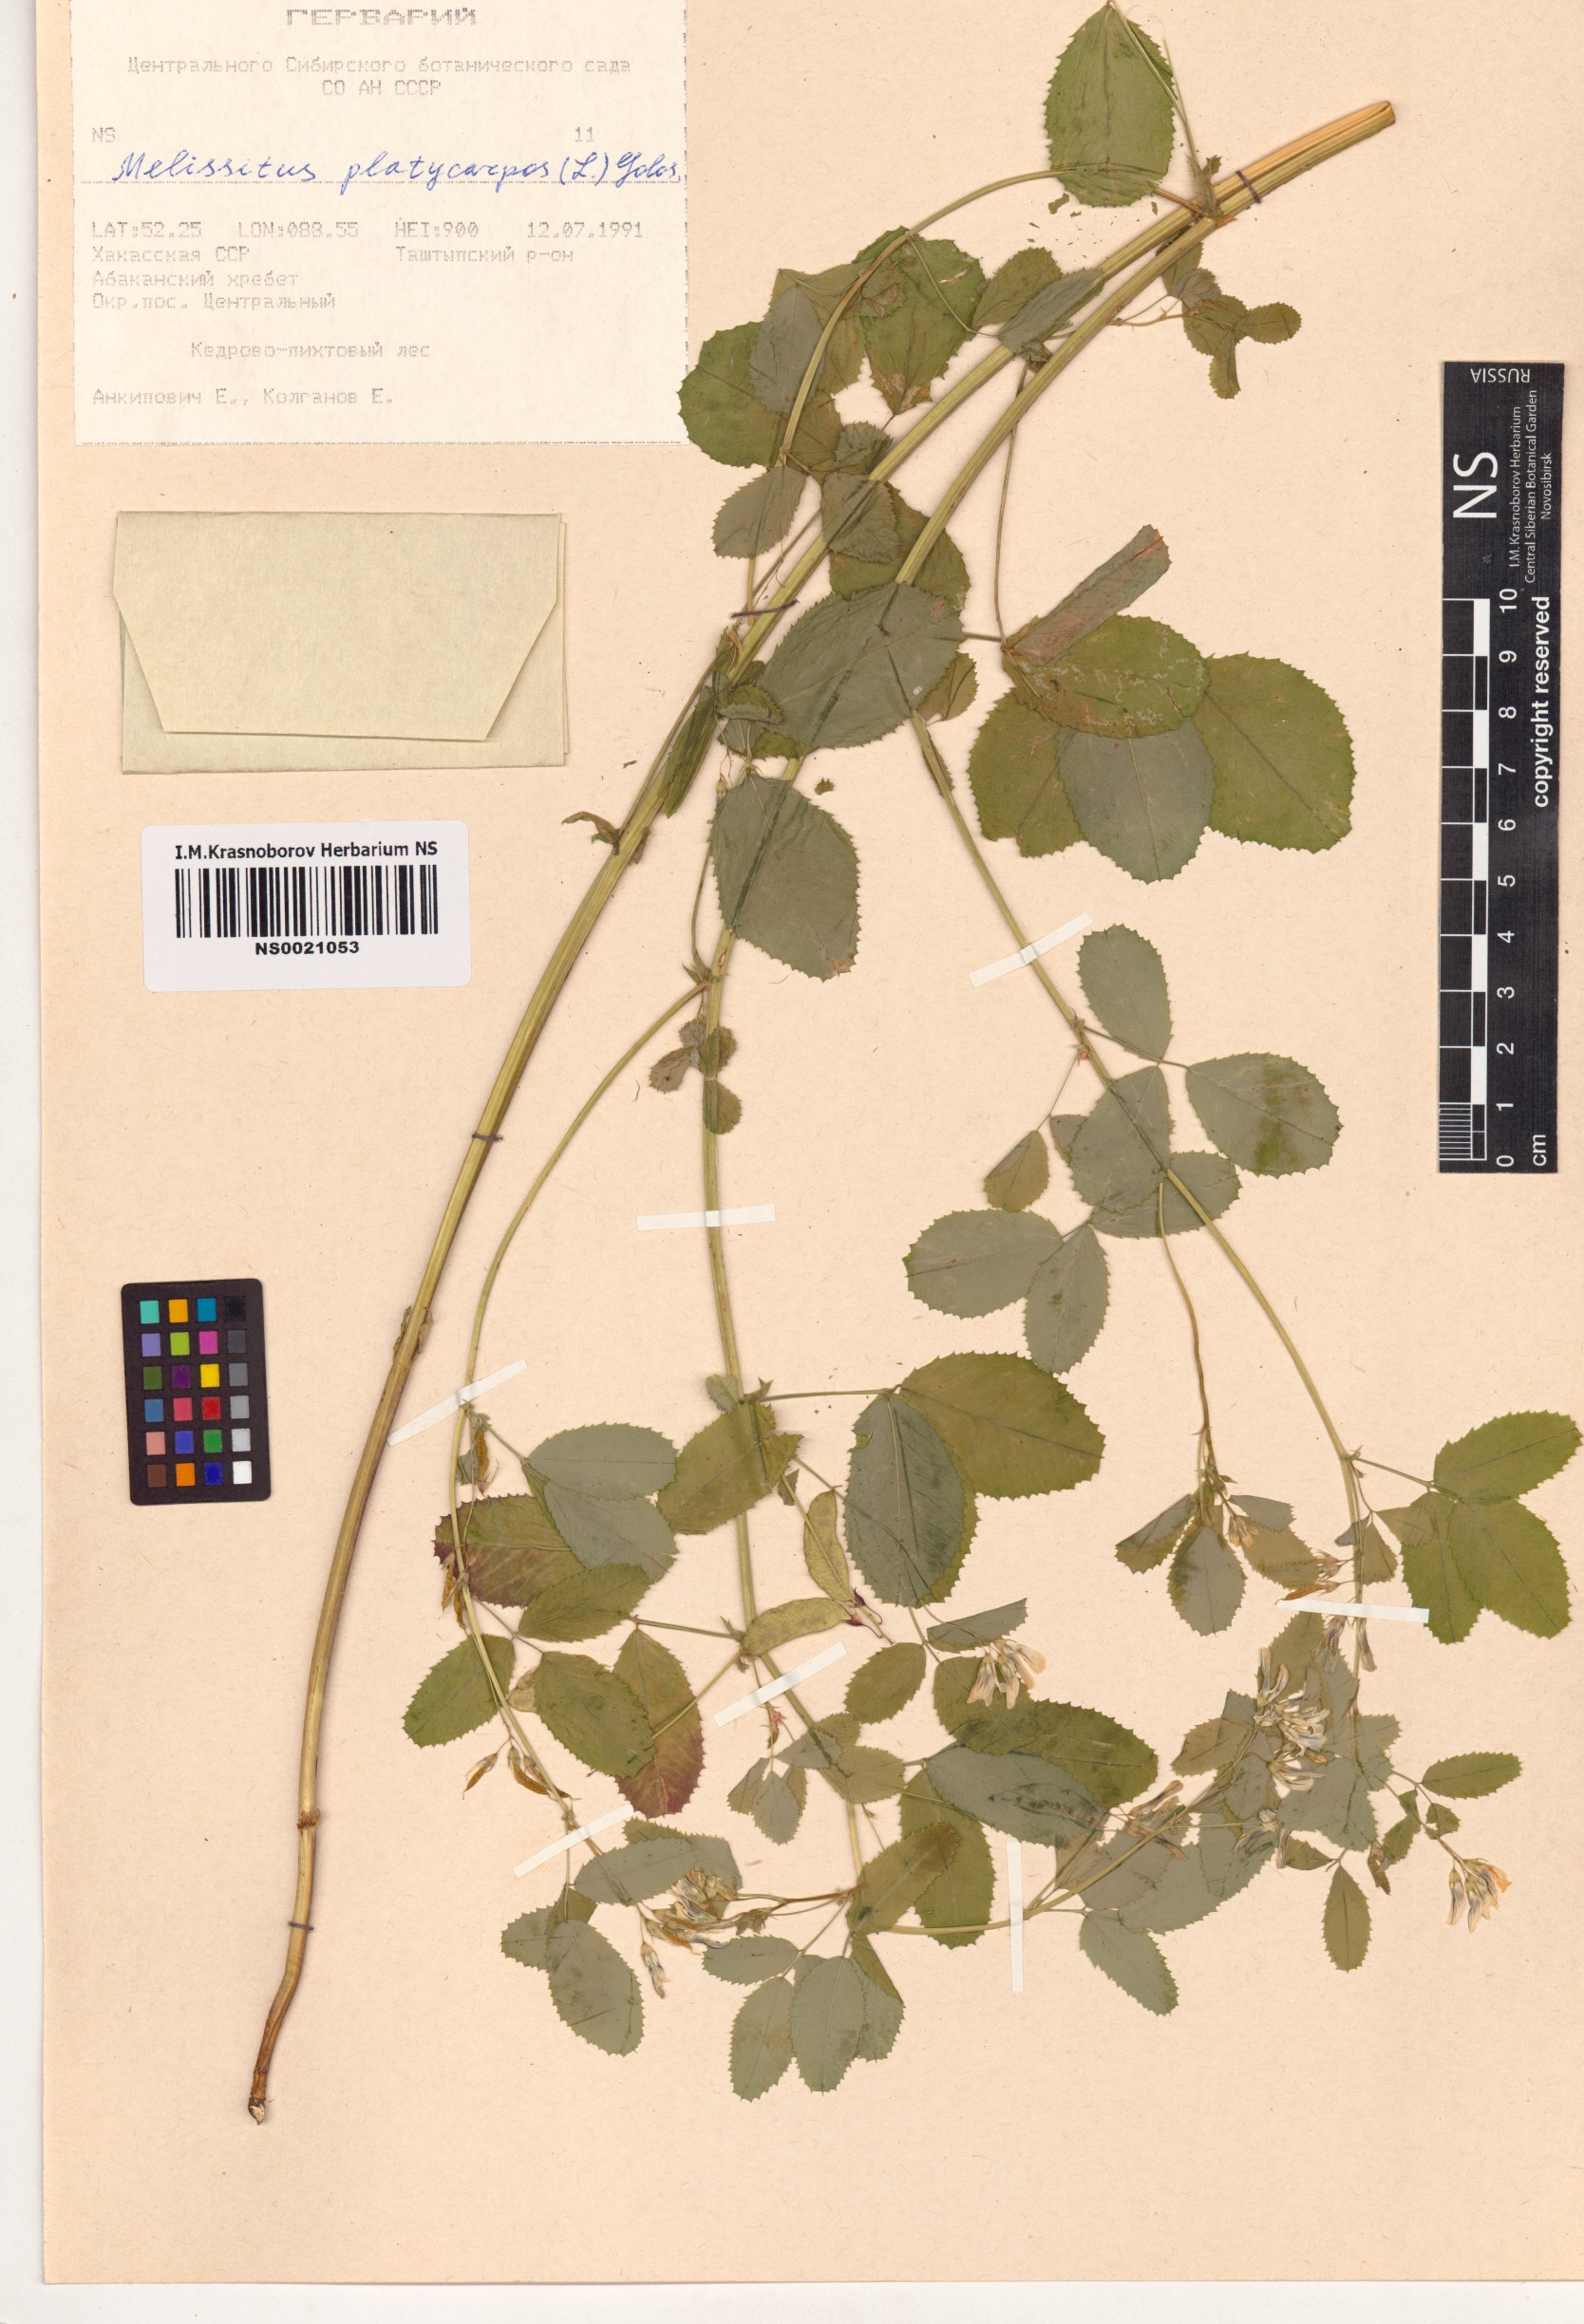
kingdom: Plantae
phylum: Tracheophyta
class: Magnoliopsida
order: Fabales
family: Fabaceae
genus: Medicago
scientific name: Medicago platycarpos
